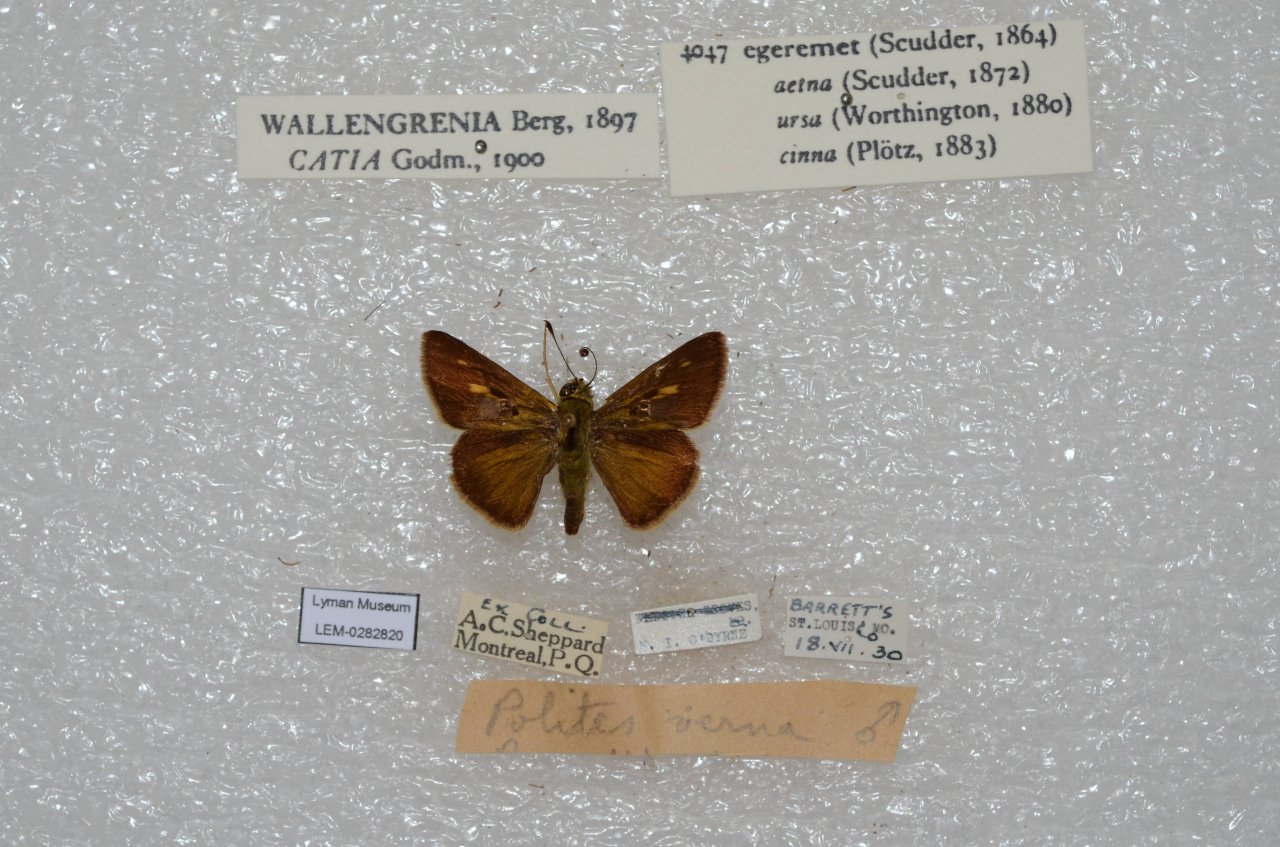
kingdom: Animalia
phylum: Arthropoda
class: Insecta
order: Lepidoptera
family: Hesperiidae
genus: Polites
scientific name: Polites egeremet
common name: Northern Broken-Dash
